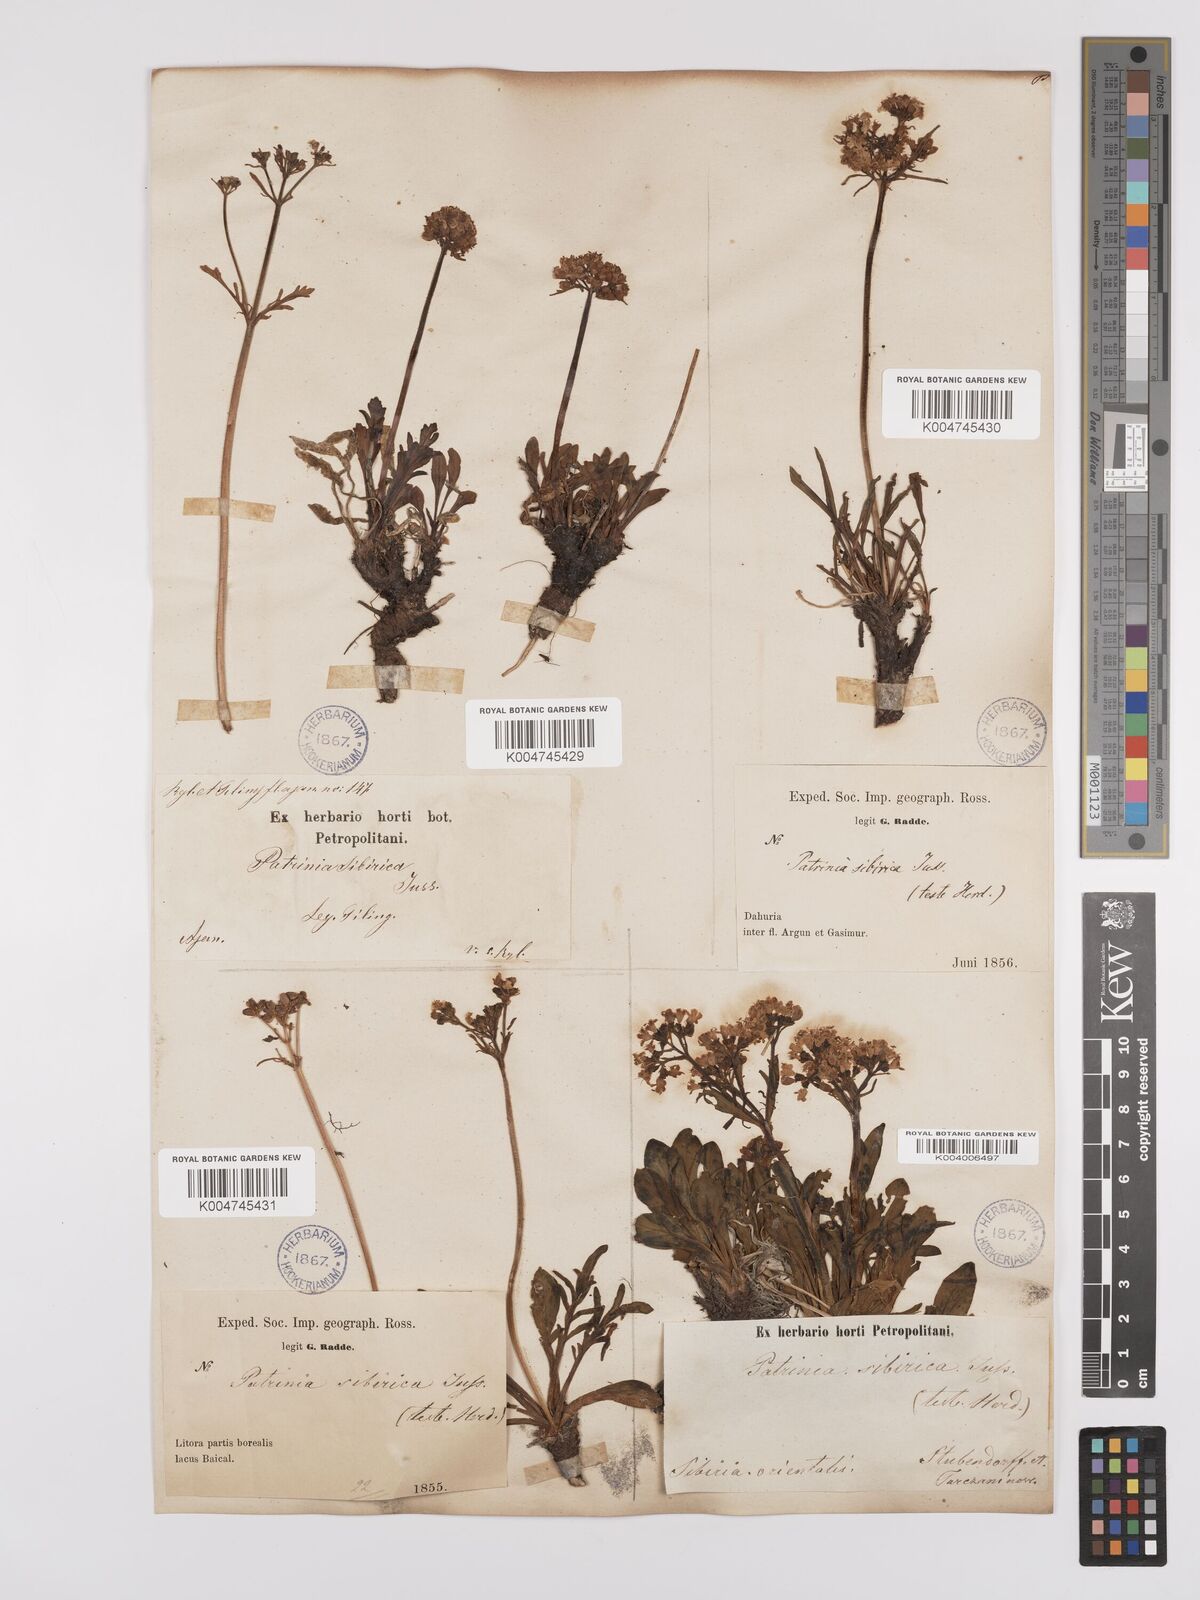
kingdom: Plantae
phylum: Tracheophyta
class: Magnoliopsida
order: Dipsacales
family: Caprifoliaceae
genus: Patrinia
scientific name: Patrinia sibirica
